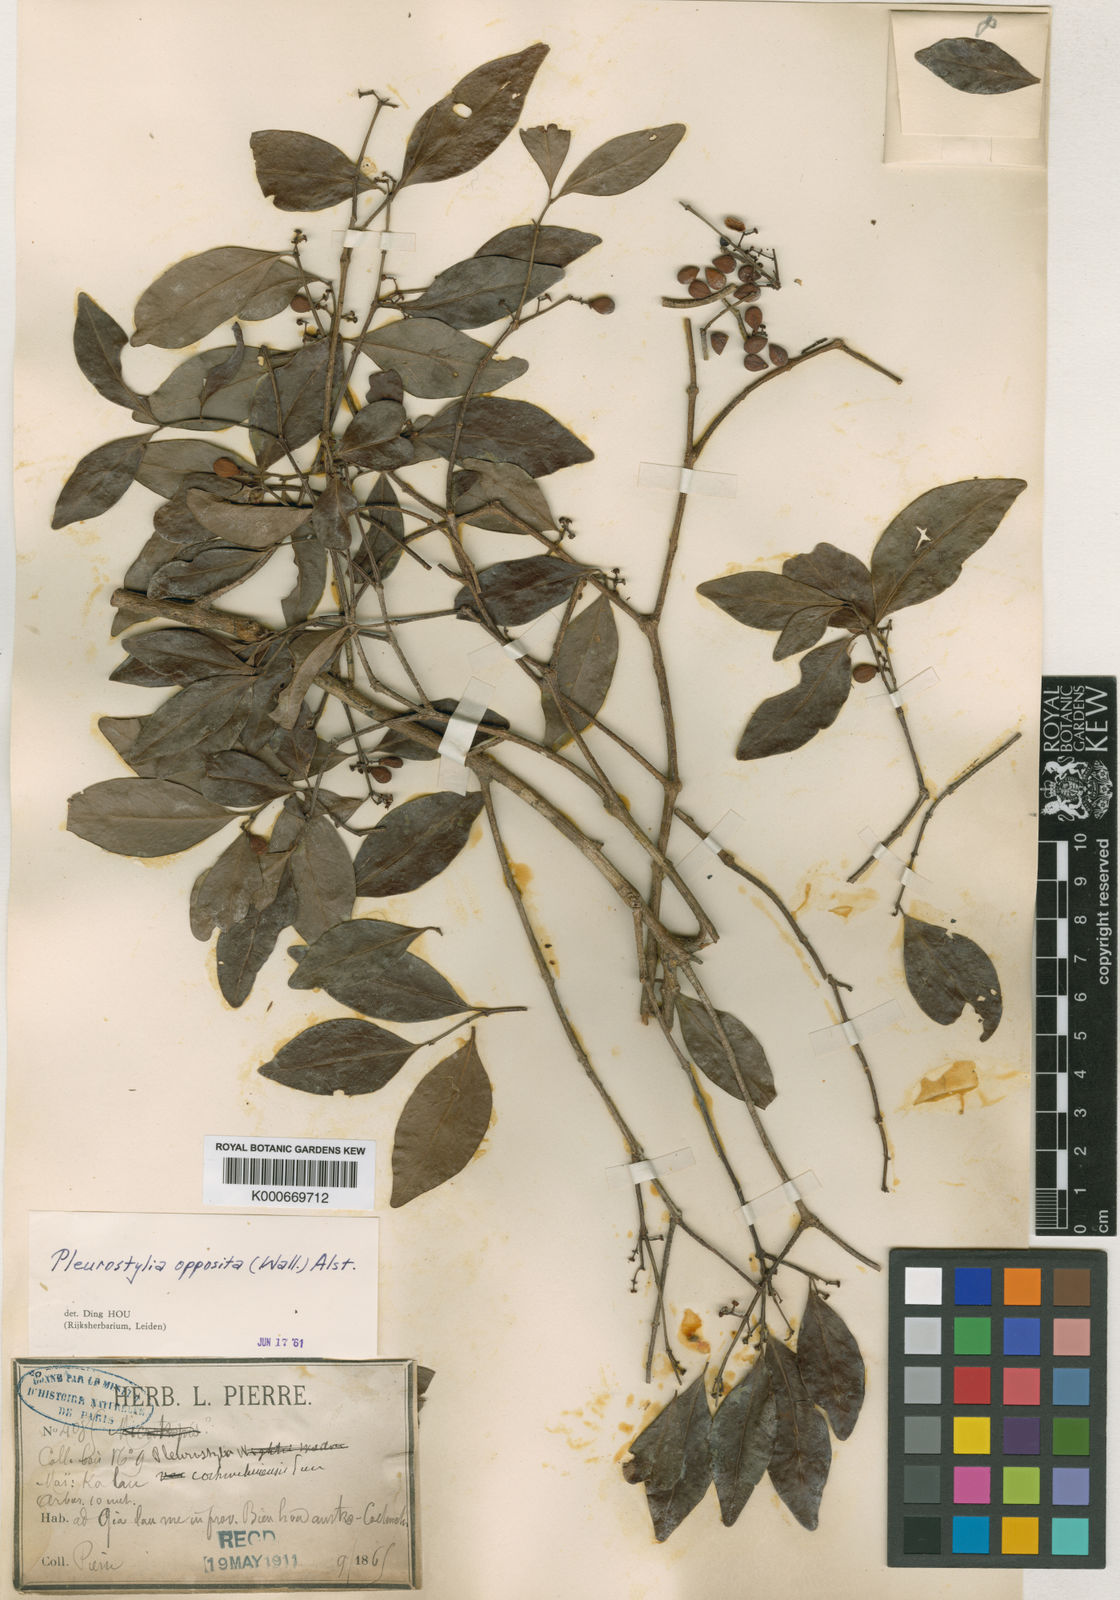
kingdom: Plantae
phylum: Tracheophyta
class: Magnoliopsida
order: Celastrales
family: Celastraceae
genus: Pleurostylia
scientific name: Pleurostylia opposita
